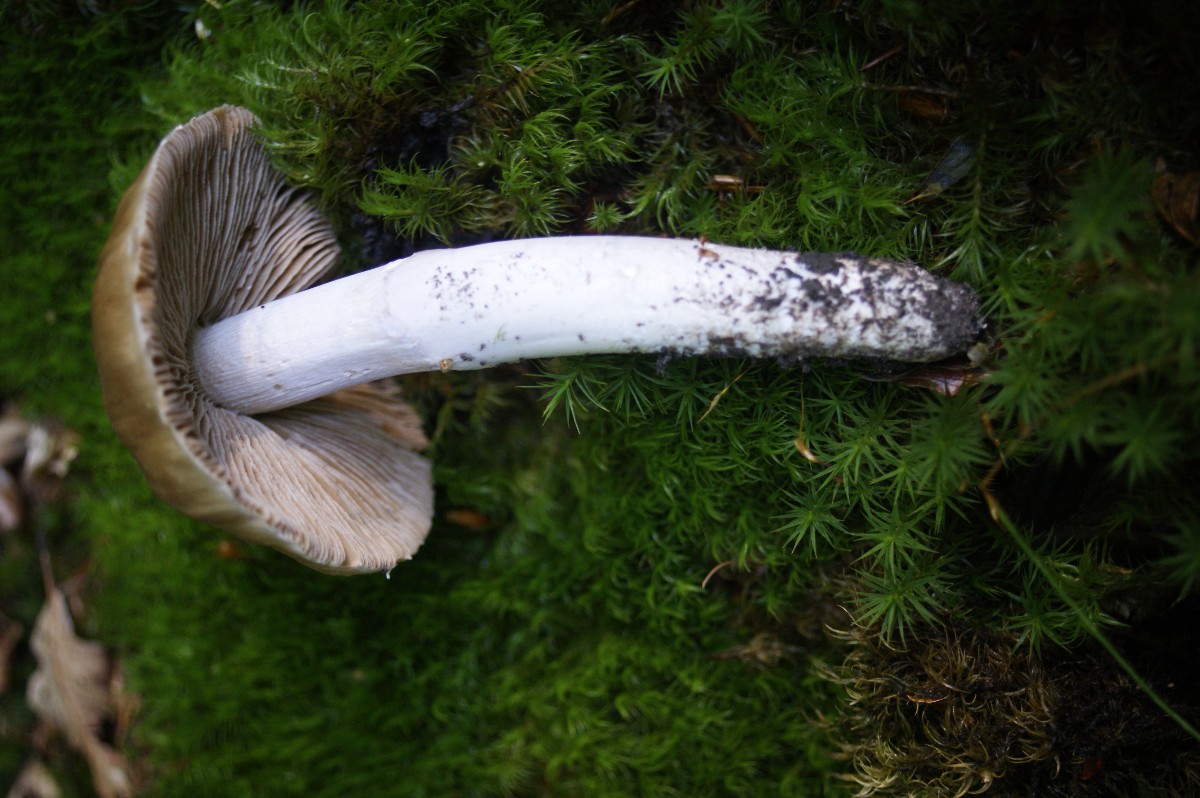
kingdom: Fungi
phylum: Basidiomycota
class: Agaricomycetes
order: Agaricales
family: Cortinariaceae
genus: Cortinarius
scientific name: Cortinarius elatior
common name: høj slørhat
